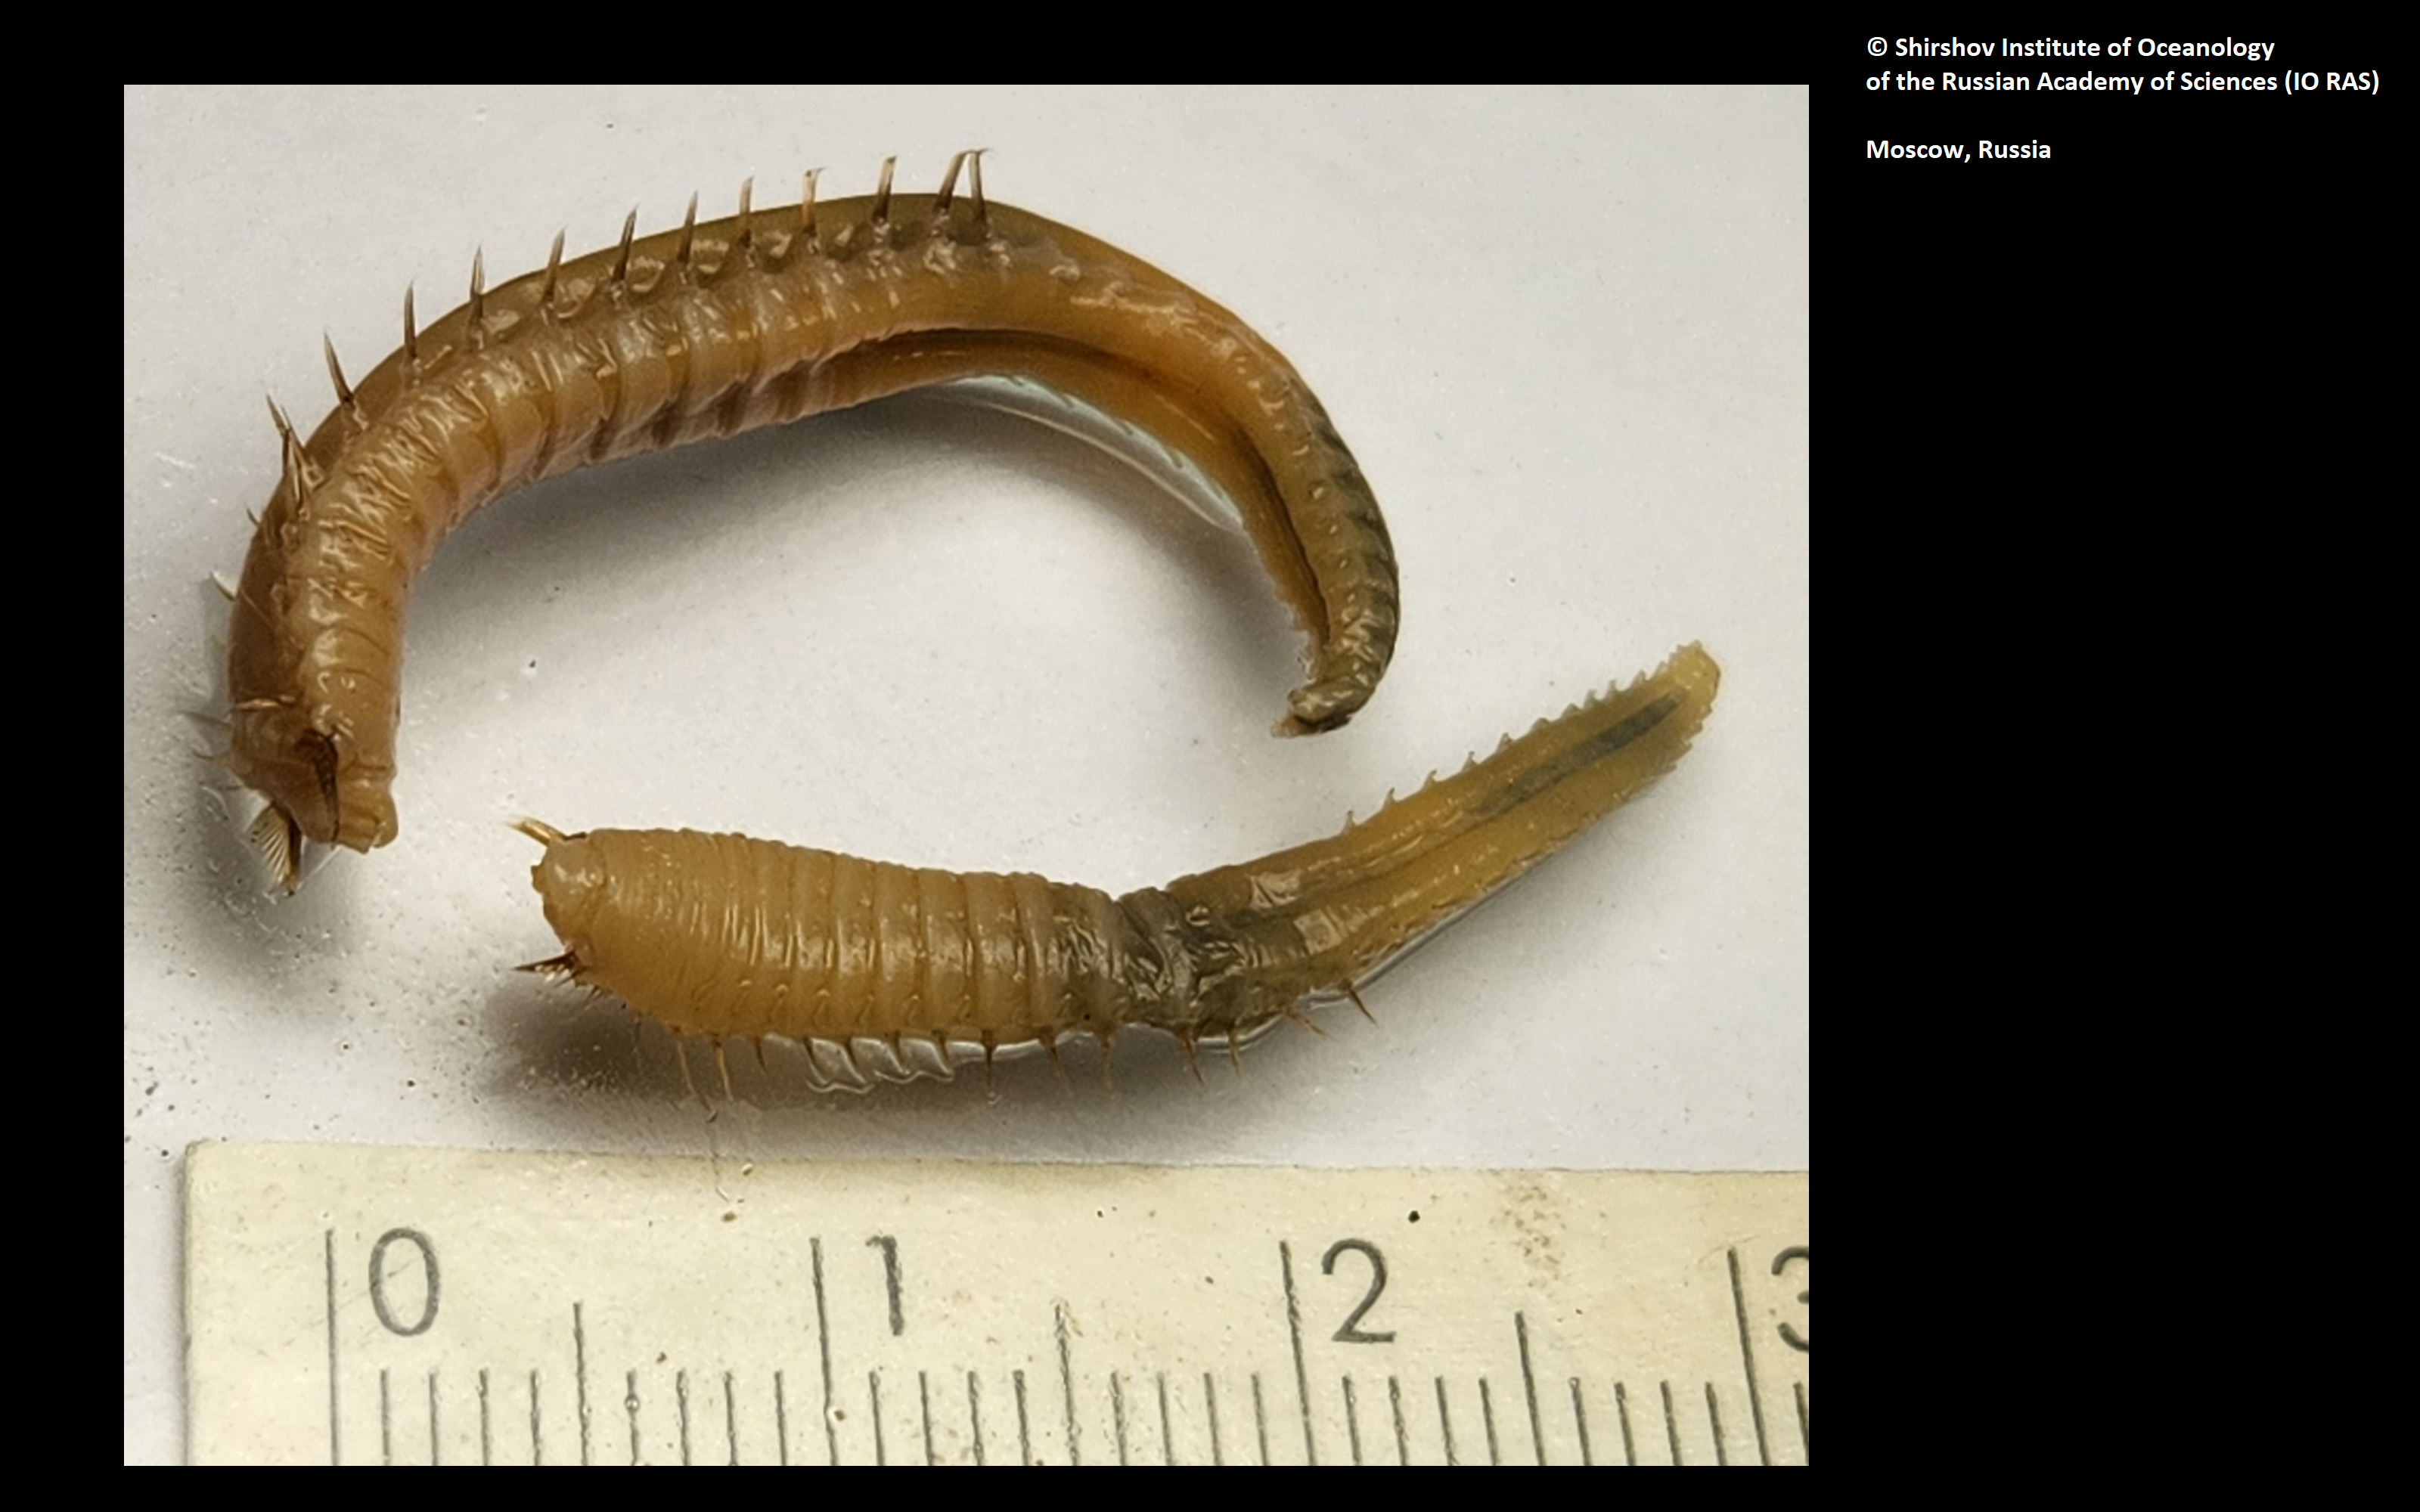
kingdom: Animalia
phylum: Annelida
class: Polychaeta
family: Ampharetidae
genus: Amphicteis
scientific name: Amphicteis nikiti
